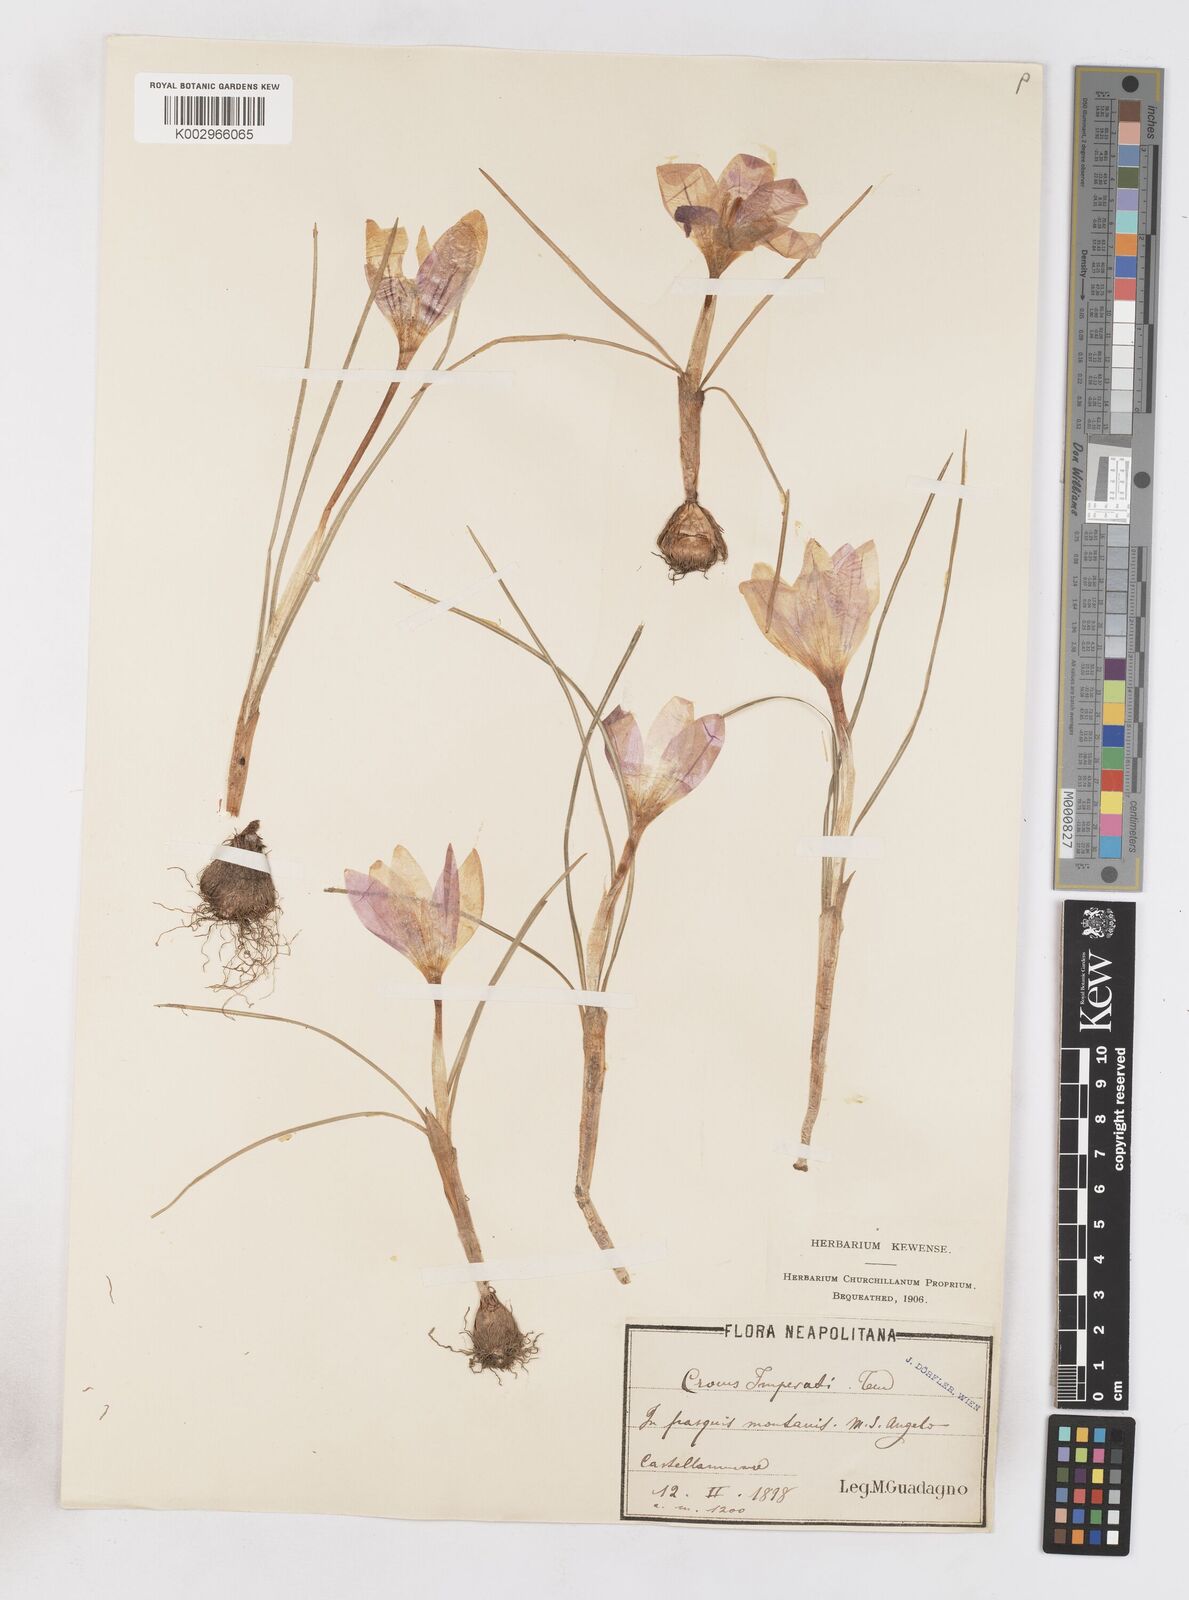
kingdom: Plantae
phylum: Tracheophyta
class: Liliopsida
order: Asparagales
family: Iridaceae
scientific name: Iridaceae
